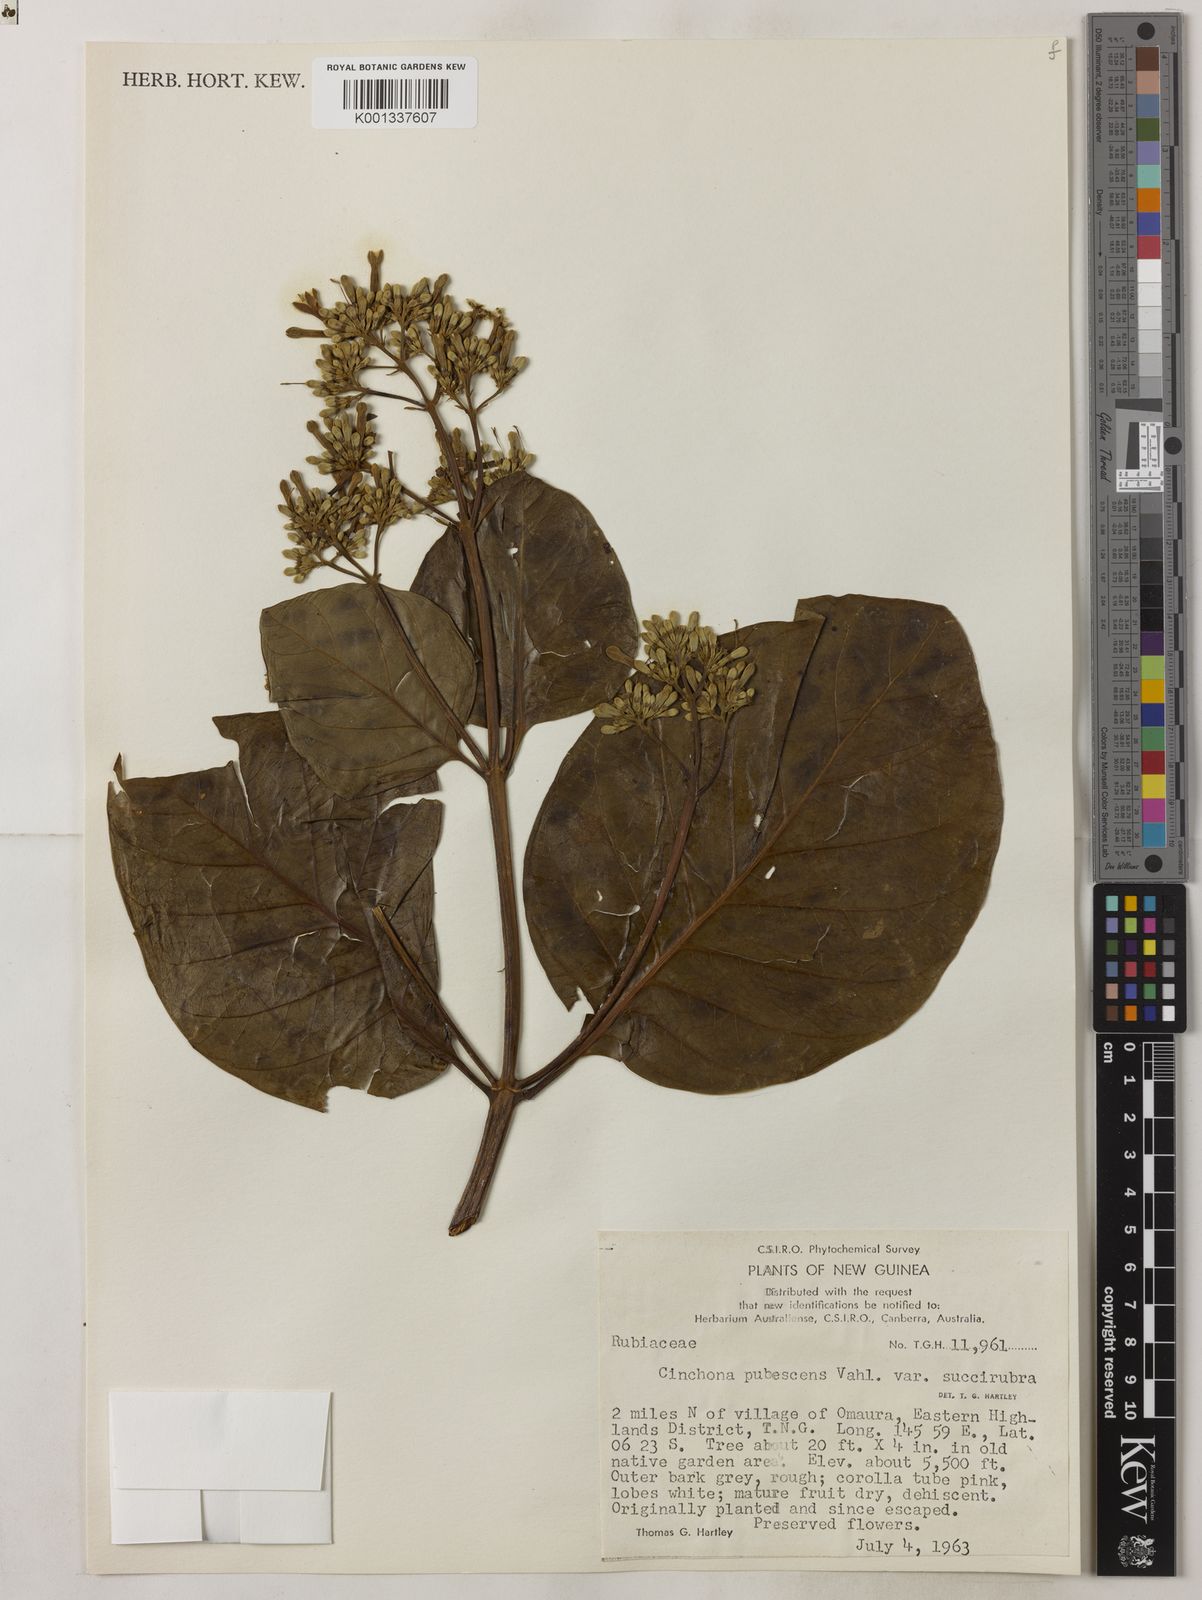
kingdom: Plantae
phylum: Tracheophyta
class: Magnoliopsida
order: Gentianales
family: Rubiaceae
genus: Cinchona
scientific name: Cinchona pubescens
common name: Quinine
